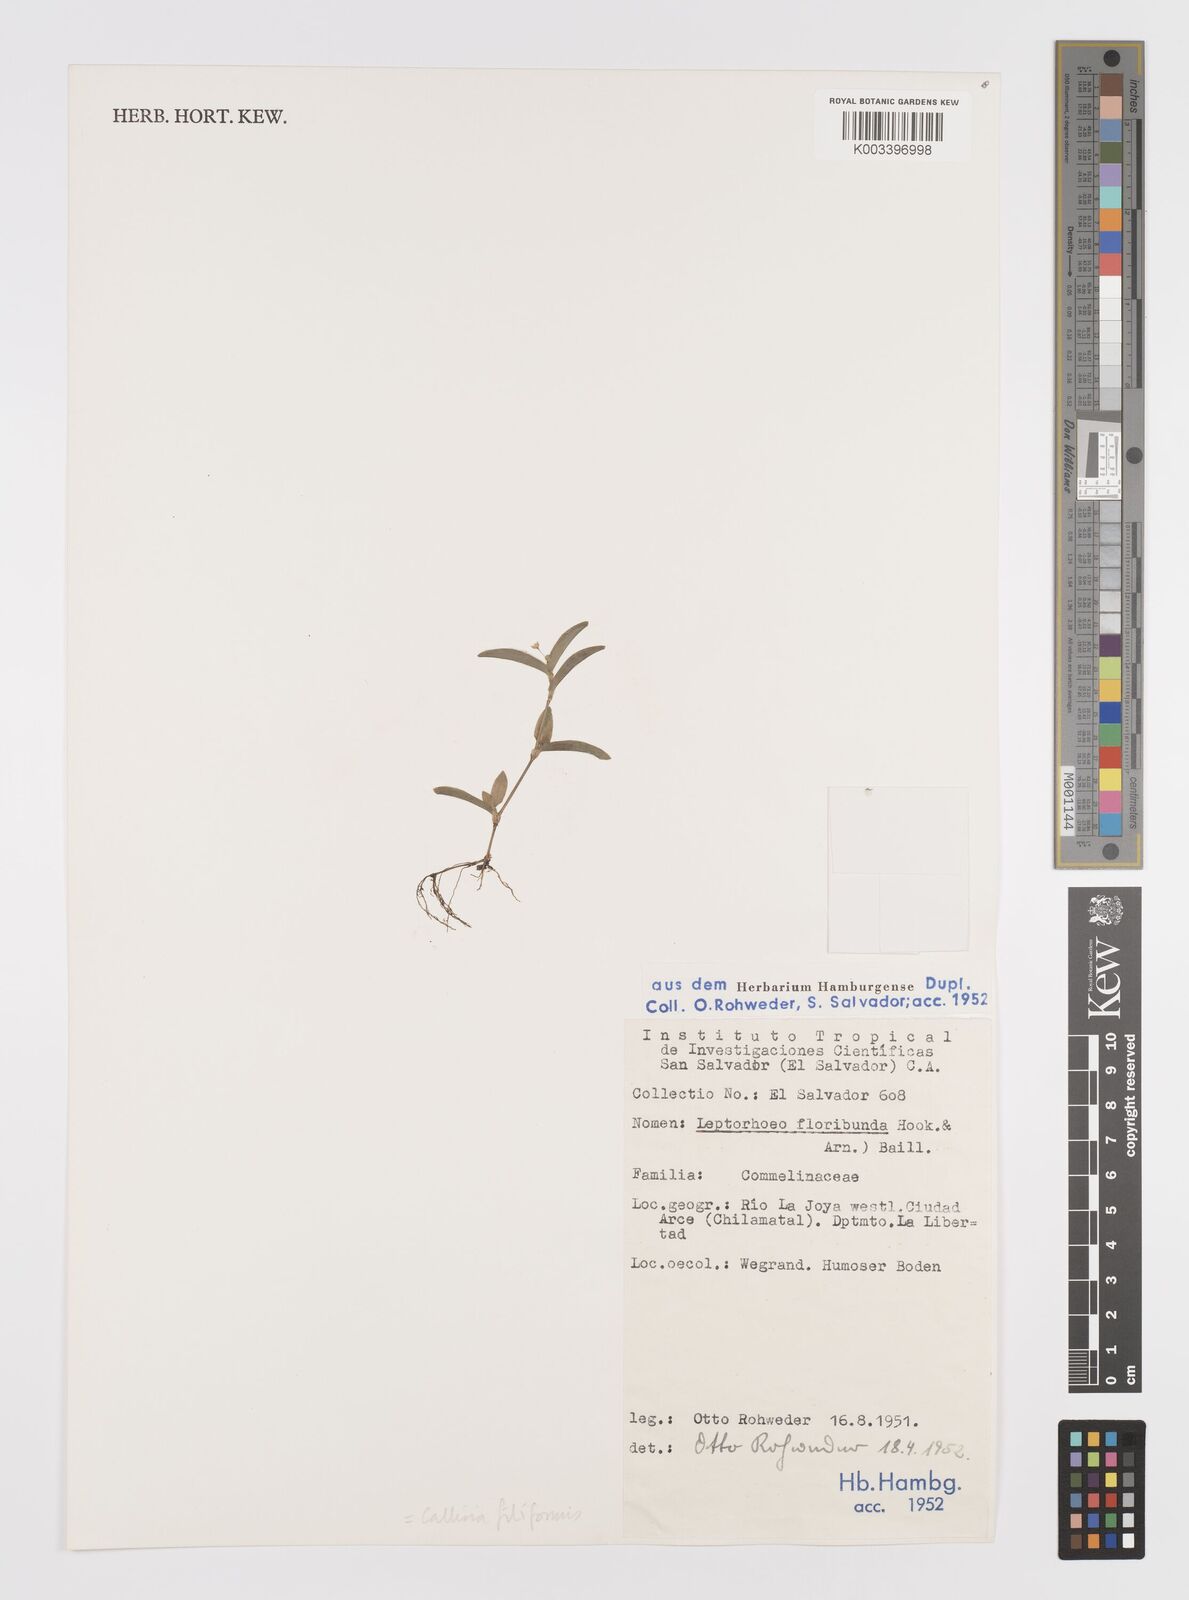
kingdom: Plantae
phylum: Tracheophyta
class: Liliopsida
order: Commelinales
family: Commelinaceae
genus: Callisia
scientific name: Callisia filiformis
